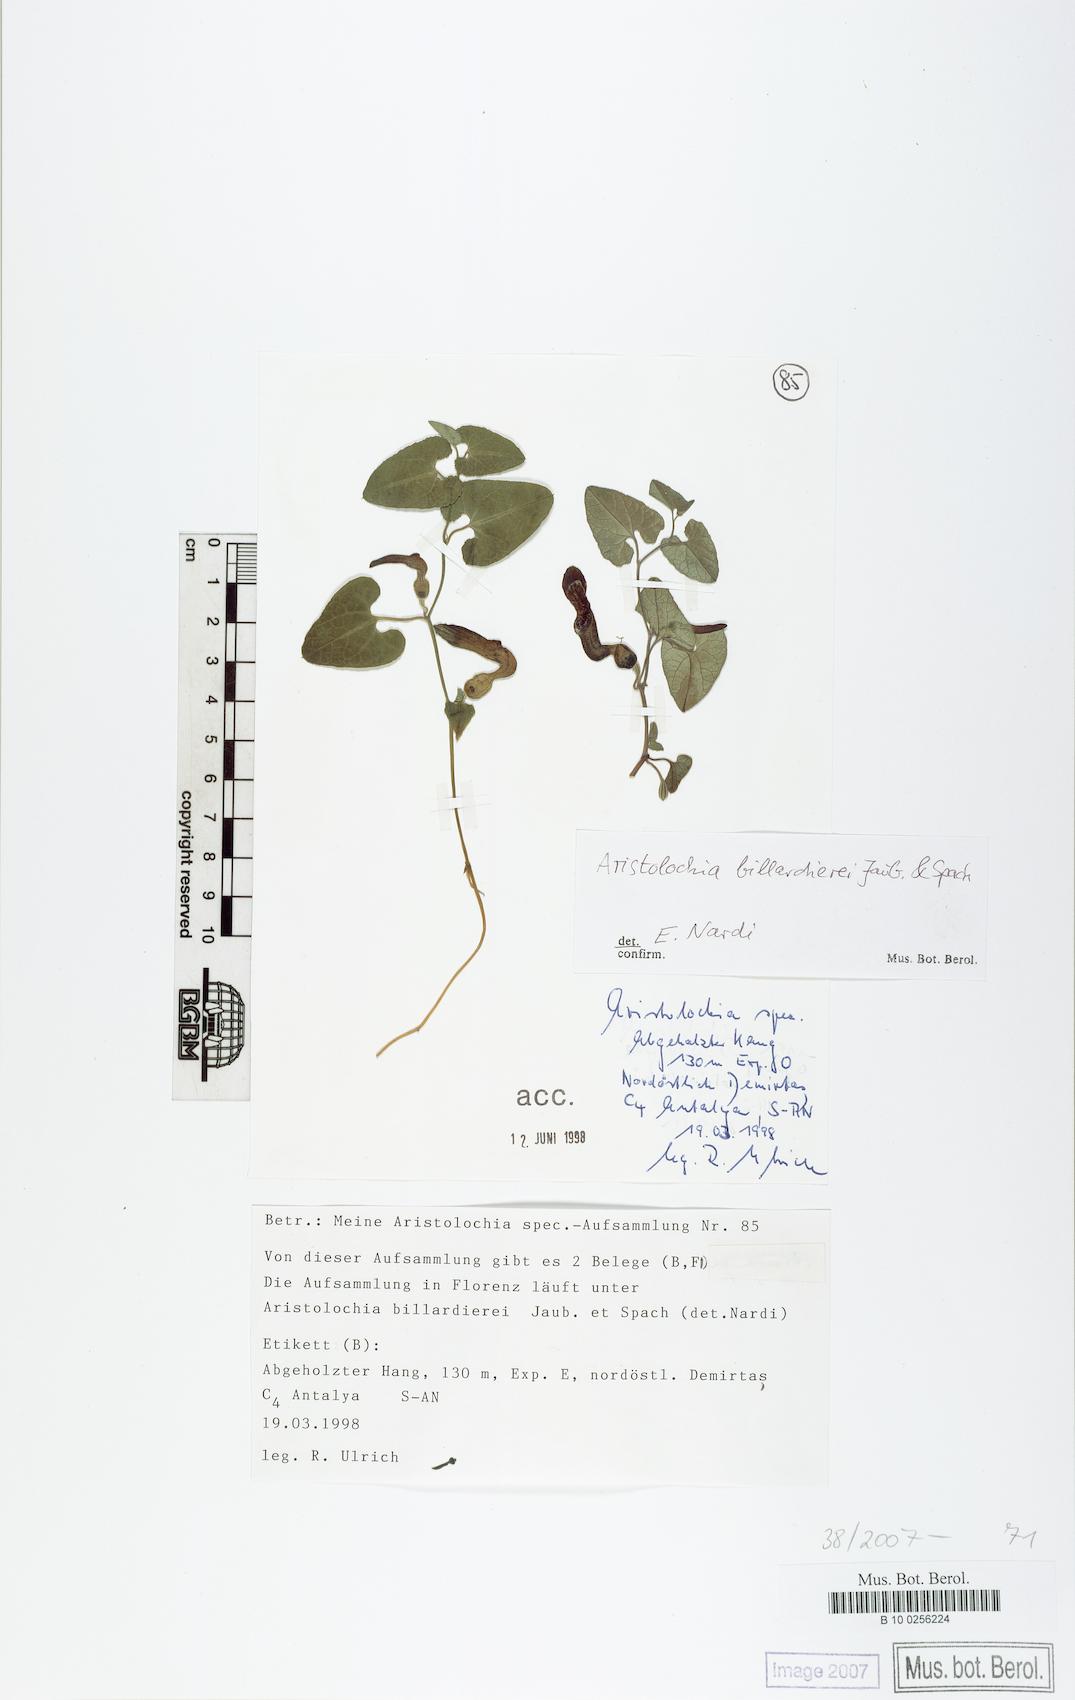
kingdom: Plantae
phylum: Tracheophyta
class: Magnoliopsida
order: Piperales
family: Aristolochiaceae
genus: Aristolochia
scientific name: Aristolochia billardieri
